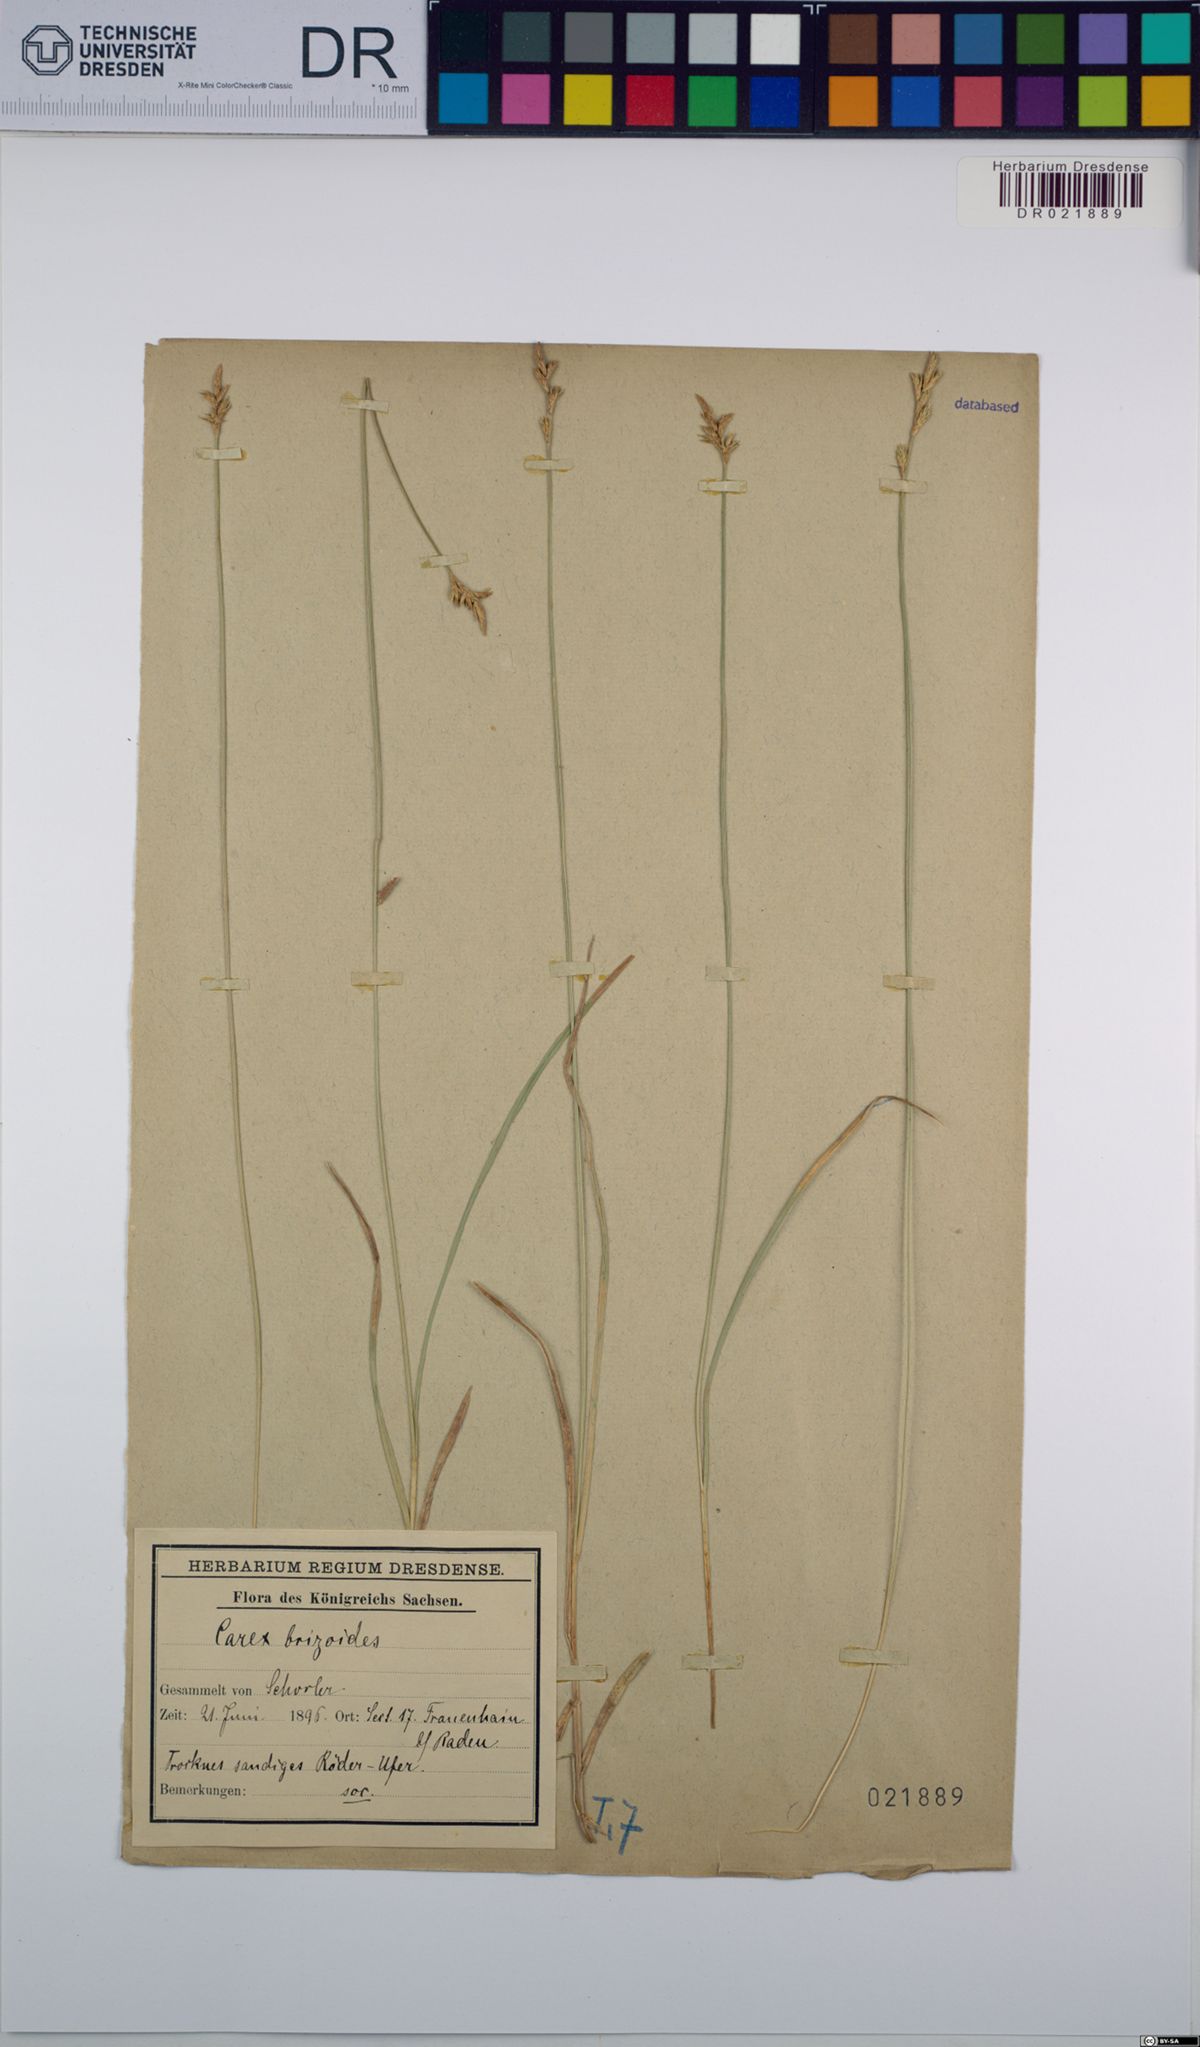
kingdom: Plantae
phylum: Tracheophyta
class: Liliopsida
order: Poales
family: Cyperaceae
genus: Carex
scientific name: Carex brizoides
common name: Quaking-grass sedge
